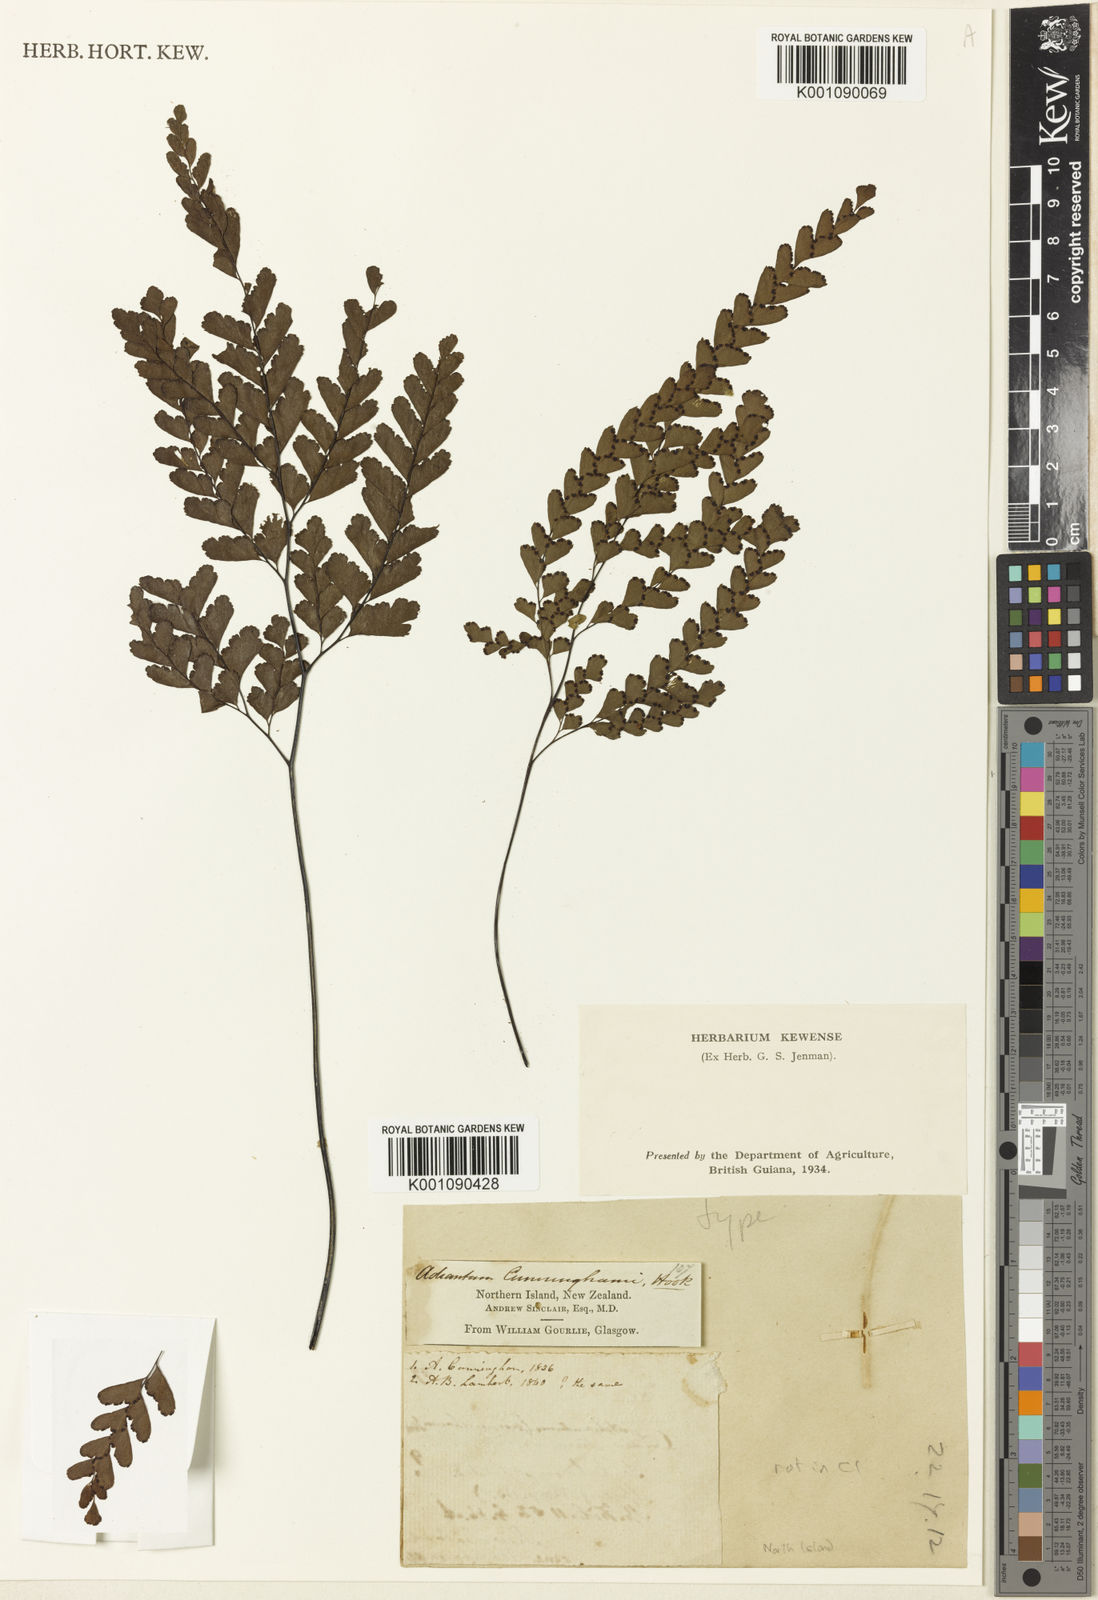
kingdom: Plantae
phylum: Tracheophyta
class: Polypodiopsida
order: Polypodiales
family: Pteridaceae
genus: Adiantum
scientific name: Adiantum cunninghamii
